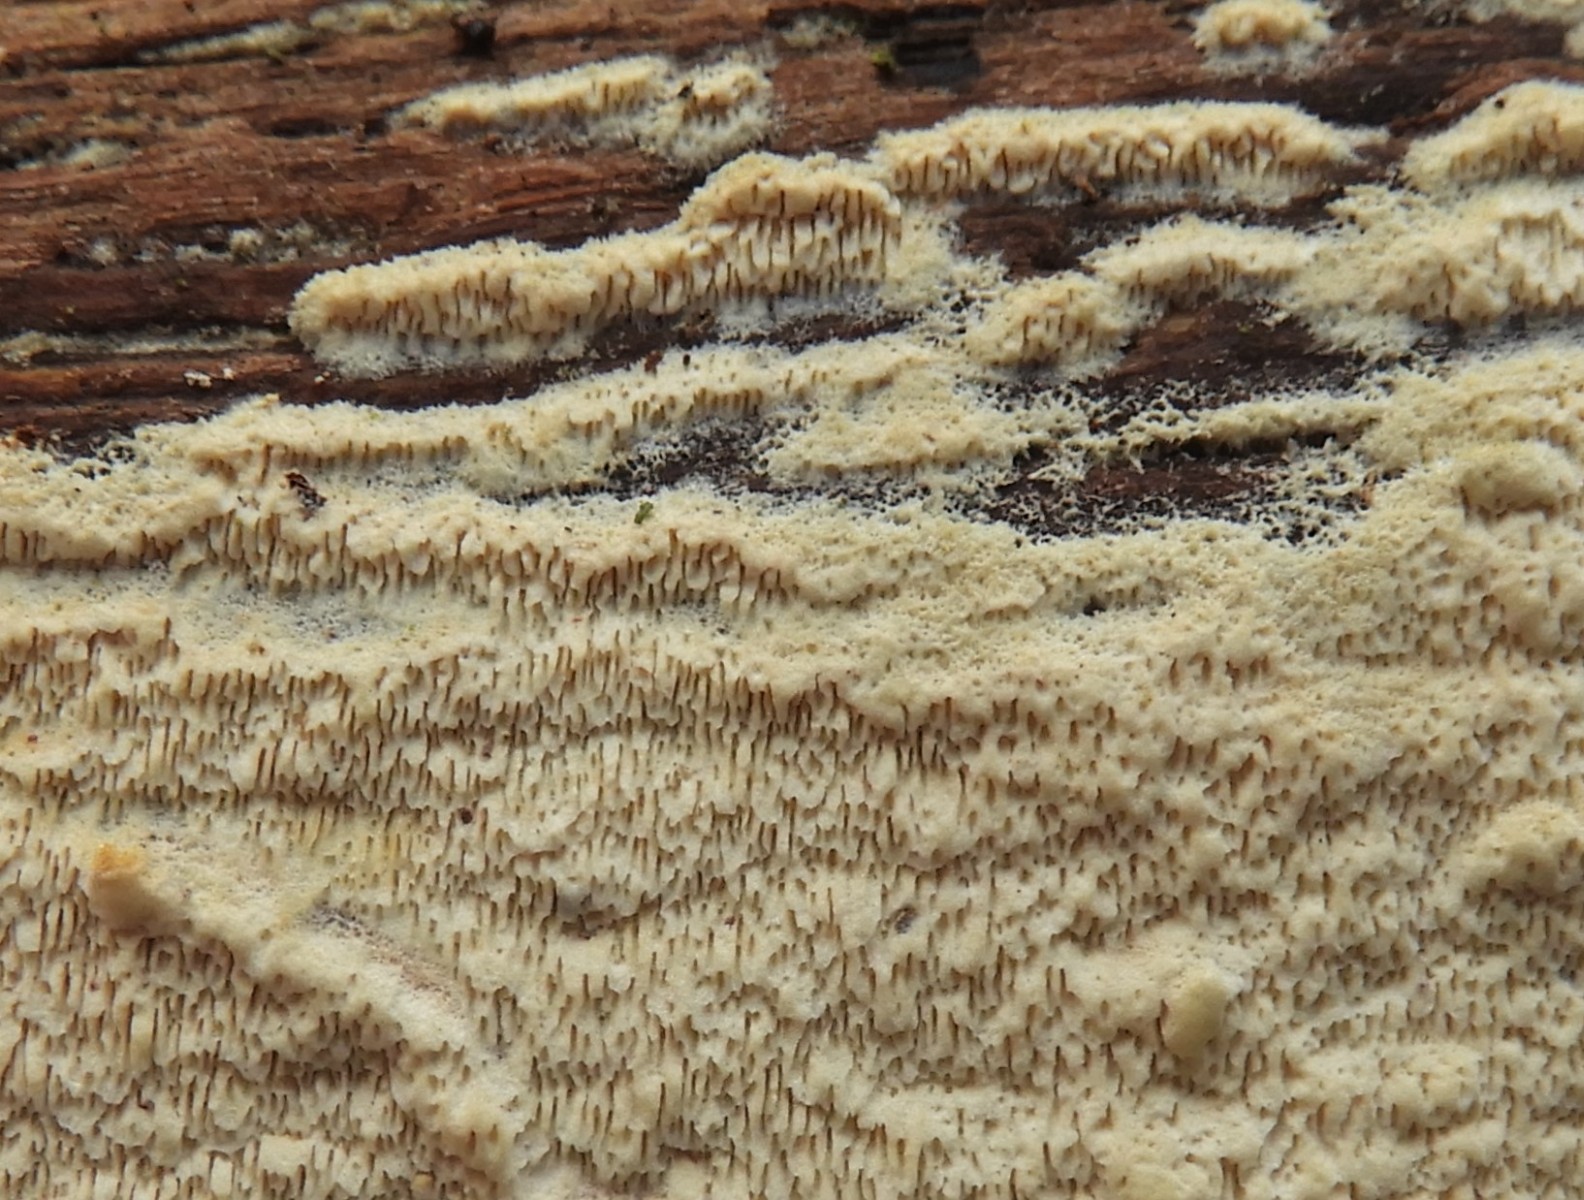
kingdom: Fungi
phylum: Basidiomycota
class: Agaricomycetes
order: Polyporales
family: Meruliaceae
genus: Phlebia
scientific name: Phlebia rufa
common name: ege-åresvamp
